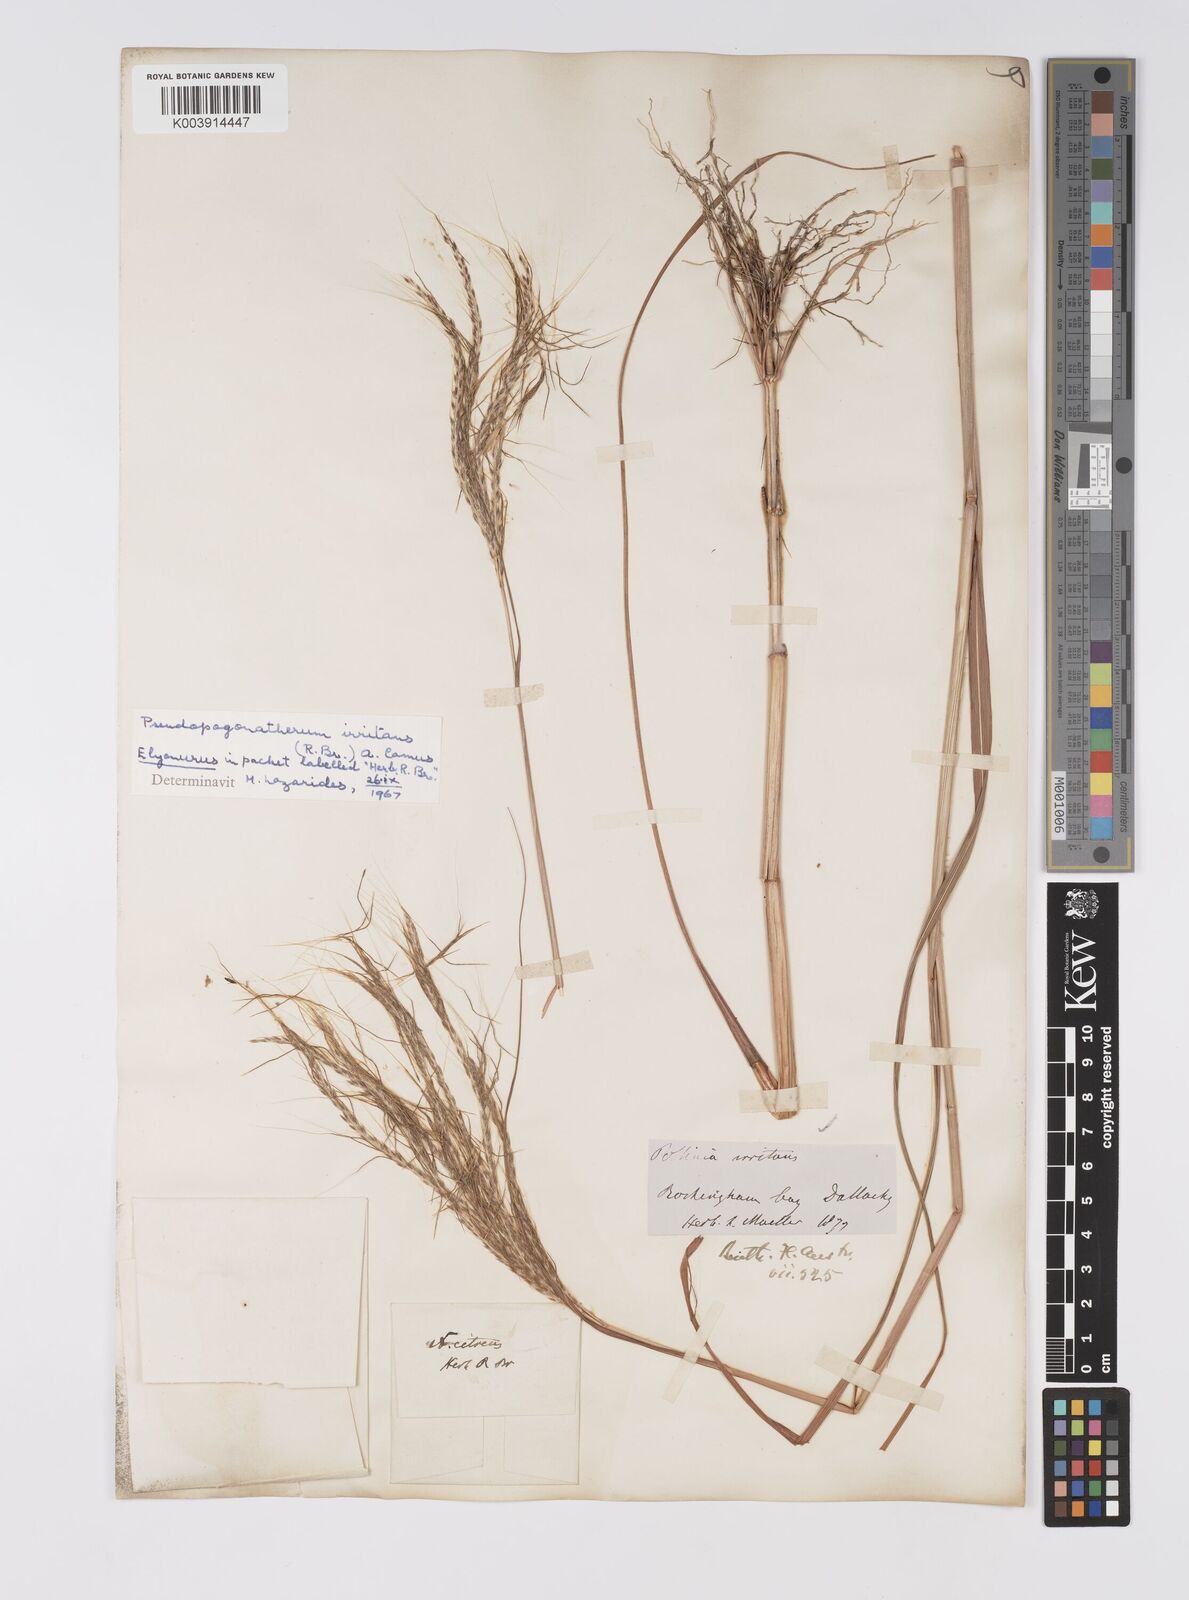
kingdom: Plantae
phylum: Tracheophyta
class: Liliopsida
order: Poales
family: Poaceae
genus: Pseudopogonatherum
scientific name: Pseudopogonatherum irritans
